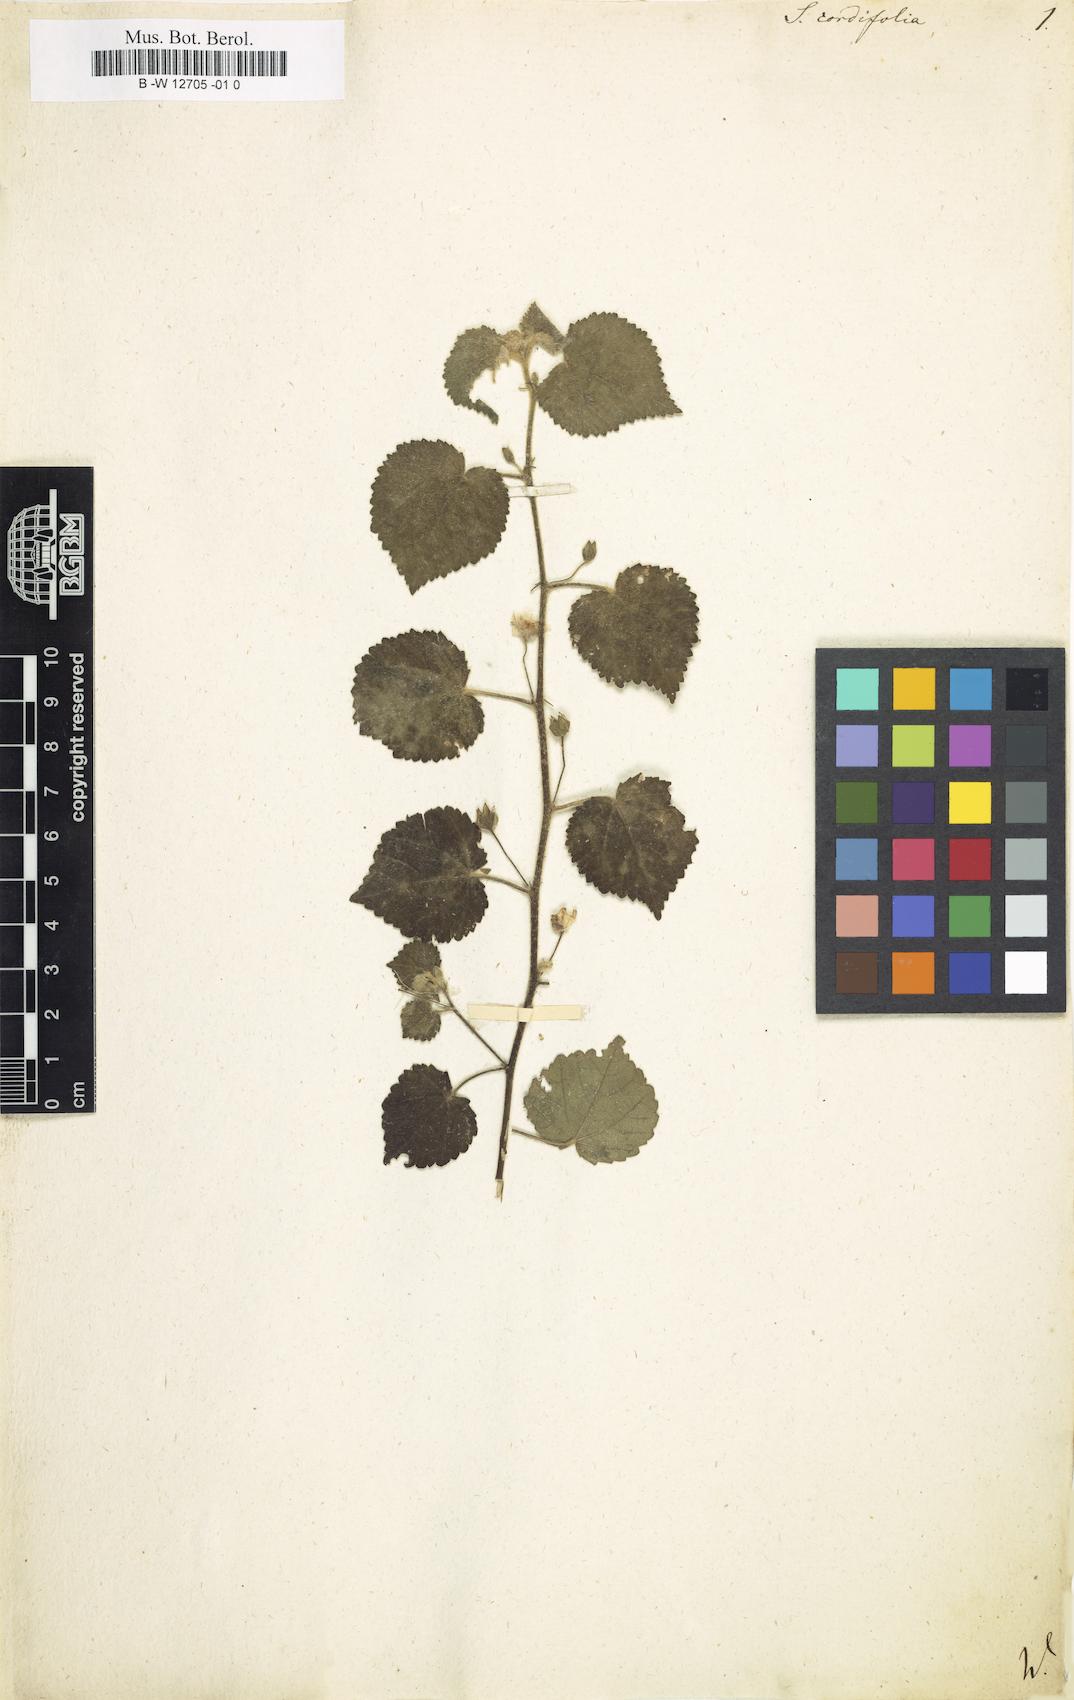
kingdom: Plantae
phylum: Tracheophyta
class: Magnoliopsida
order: Malvales
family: Malvaceae
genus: Sida
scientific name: Sida cordifolia
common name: Ilima
